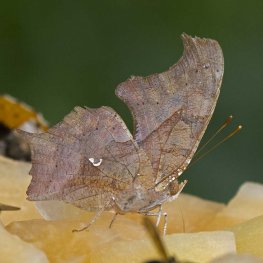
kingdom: Animalia
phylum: Arthropoda
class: Insecta
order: Lepidoptera
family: Nymphalidae
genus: Polygonia
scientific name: Polygonia interrogationis
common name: Question Mark
